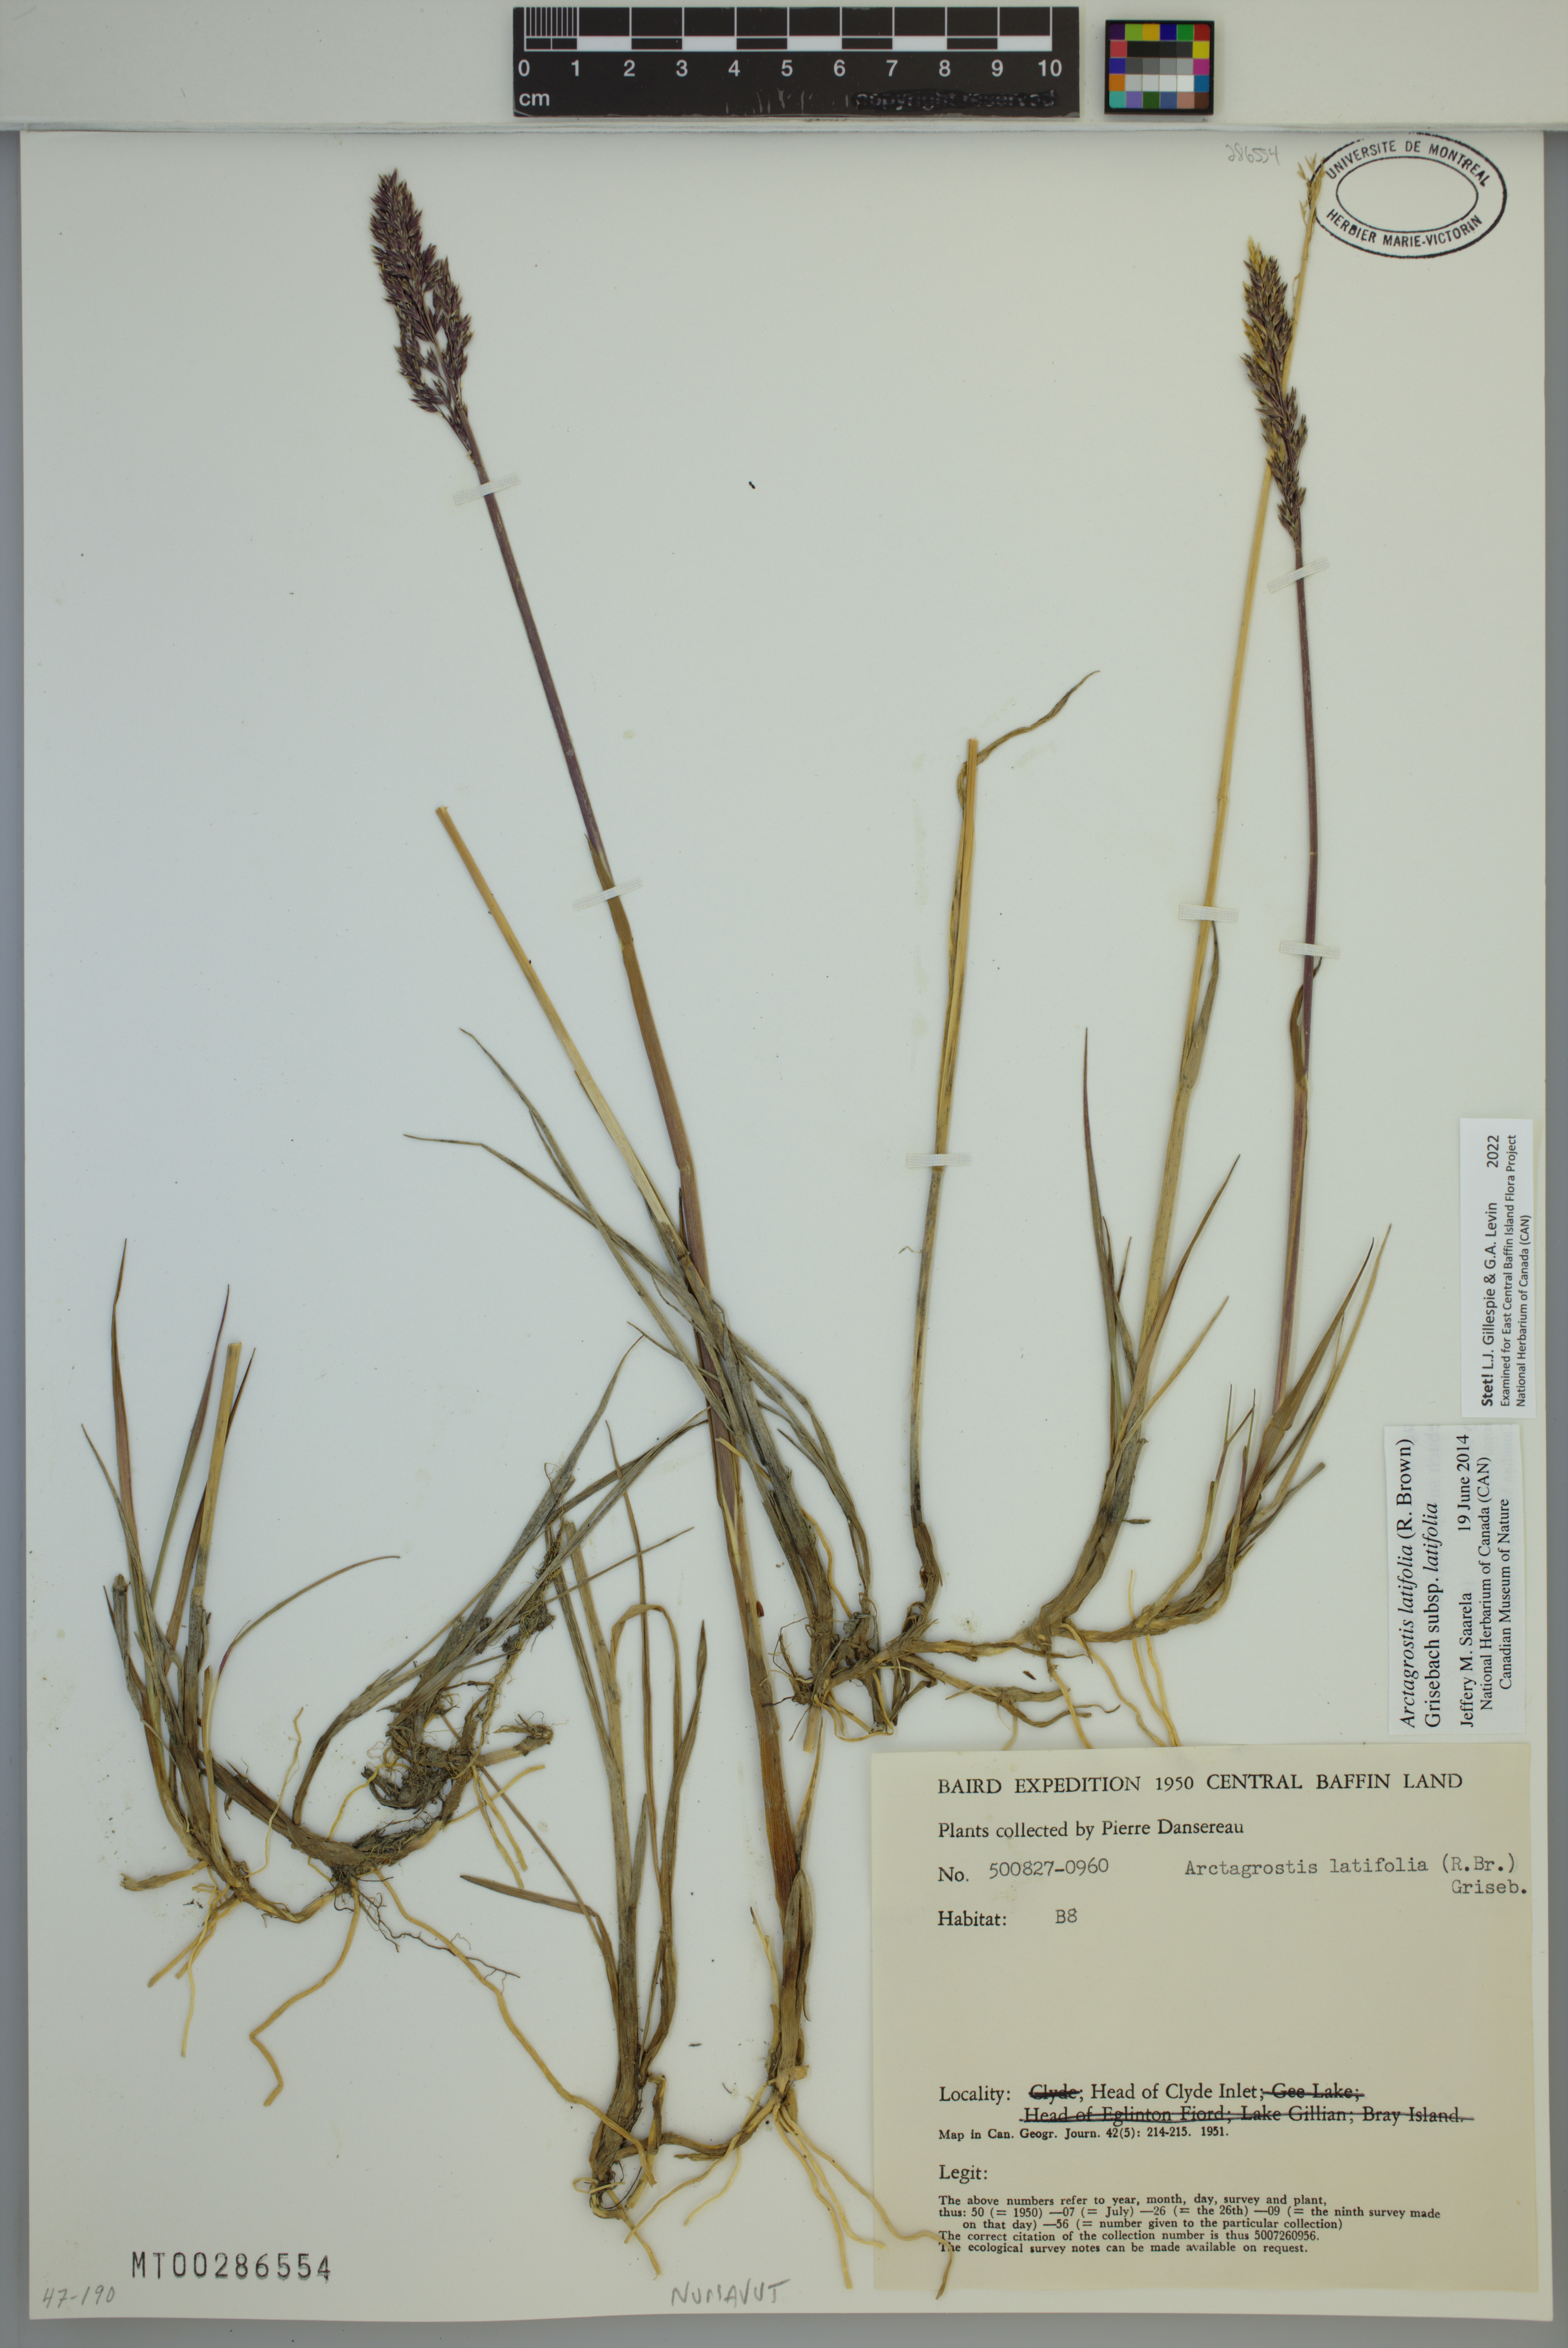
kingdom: Plantae
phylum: Tracheophyta
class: Liliopsida
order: Poales
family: Poaceae
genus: Arctagrostis
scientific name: Arctagrostis latifolia
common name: Arctic grass
